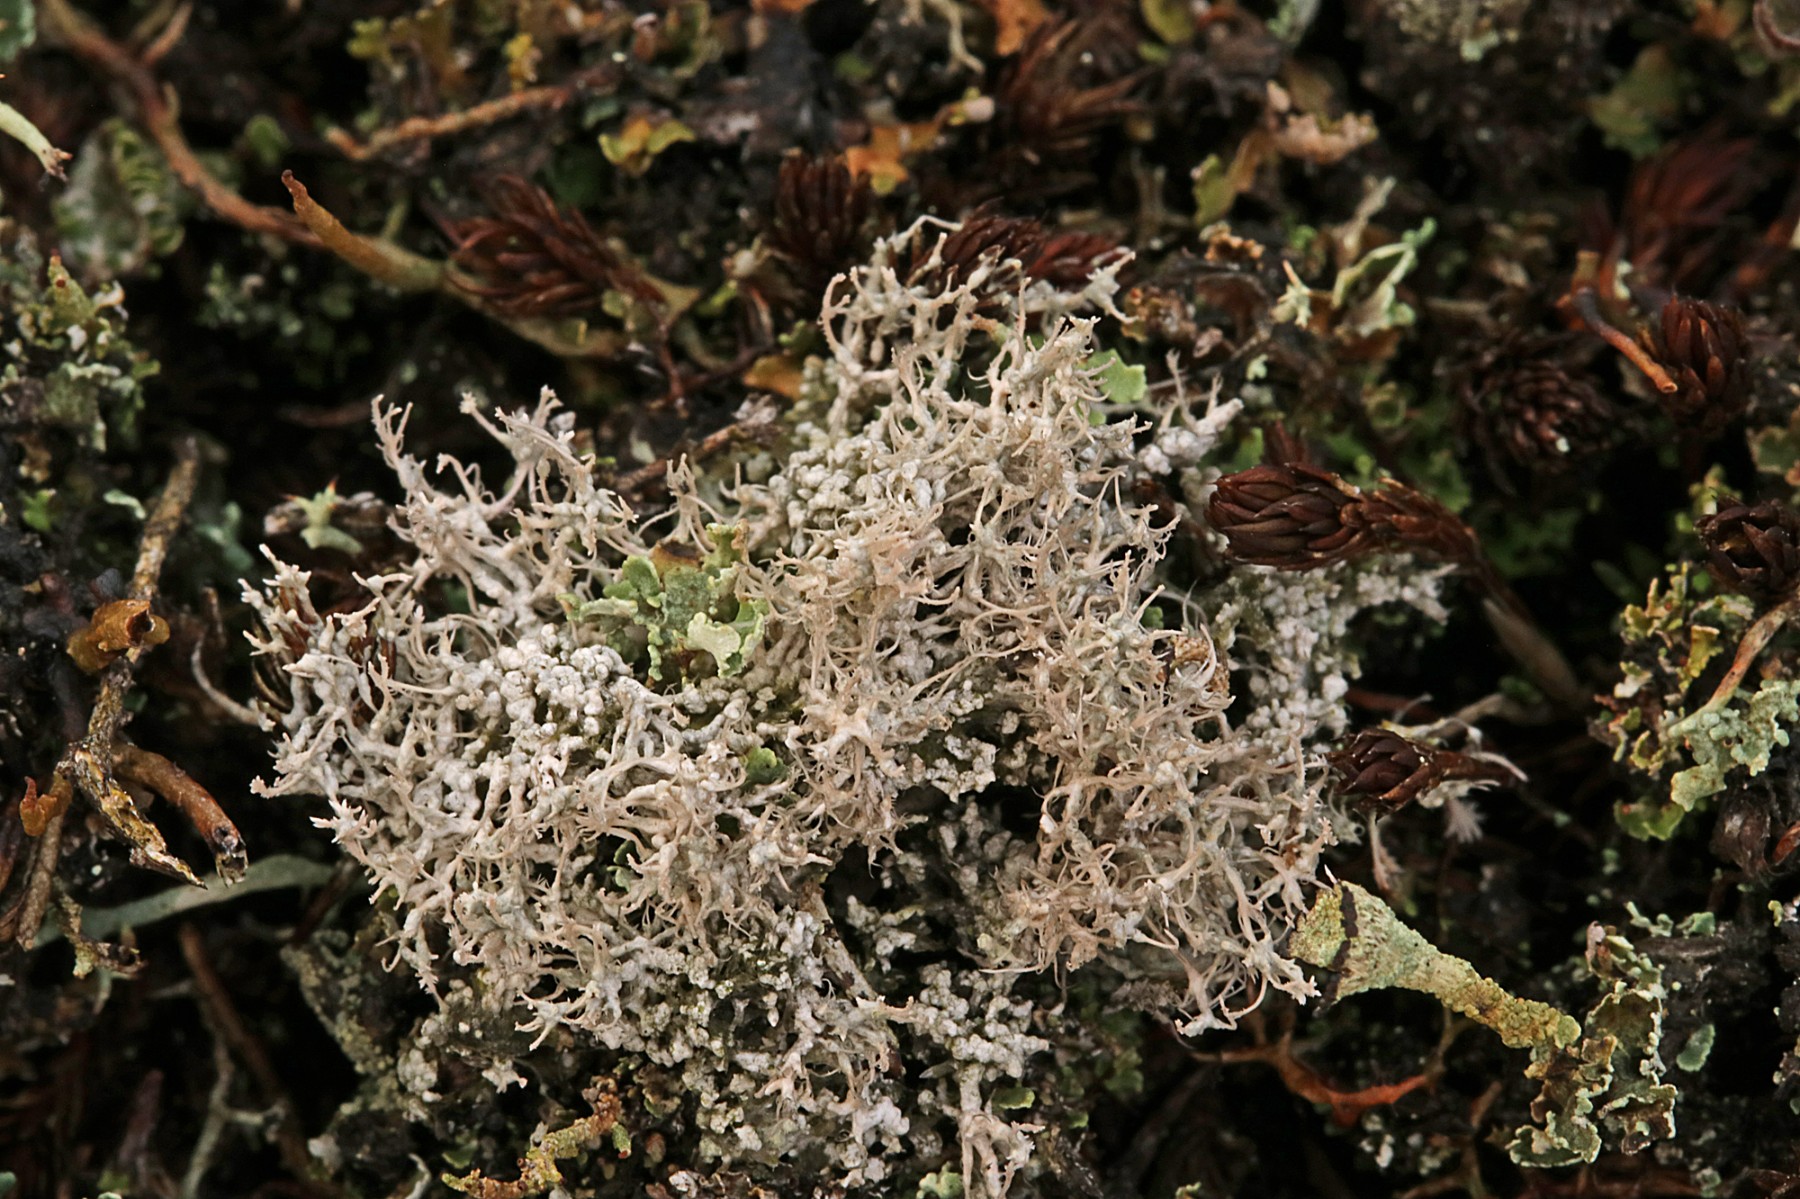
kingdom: Fungi
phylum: Ascomycota
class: Lecanoromycetes
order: Pertusariales
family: Ochrolechiaceae
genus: Ochrolechia
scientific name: Ochrolechia frigida
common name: fjeld-blegskivelav
